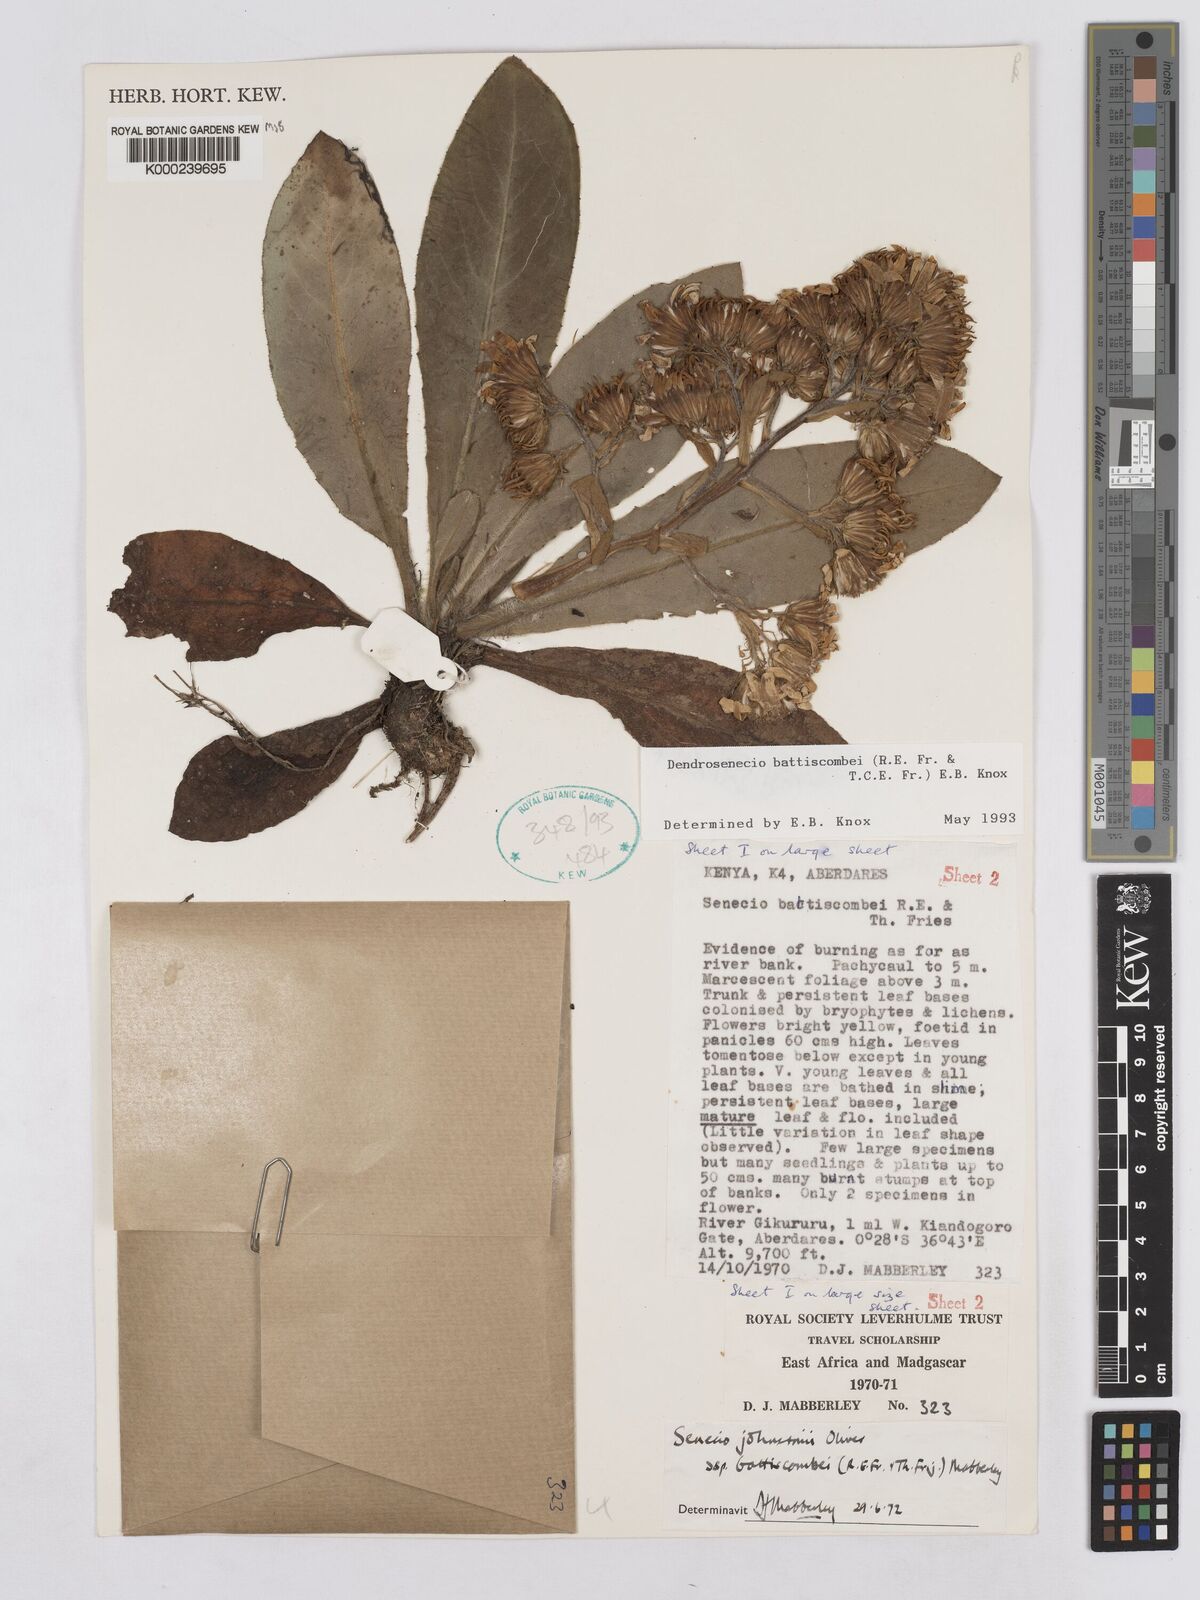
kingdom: Plantae
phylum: Tracheophyta
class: Magnoliopsida
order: Asterales
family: Asteraceae
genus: Dendrosenecio
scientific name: Dendrosenecio battiscombei
